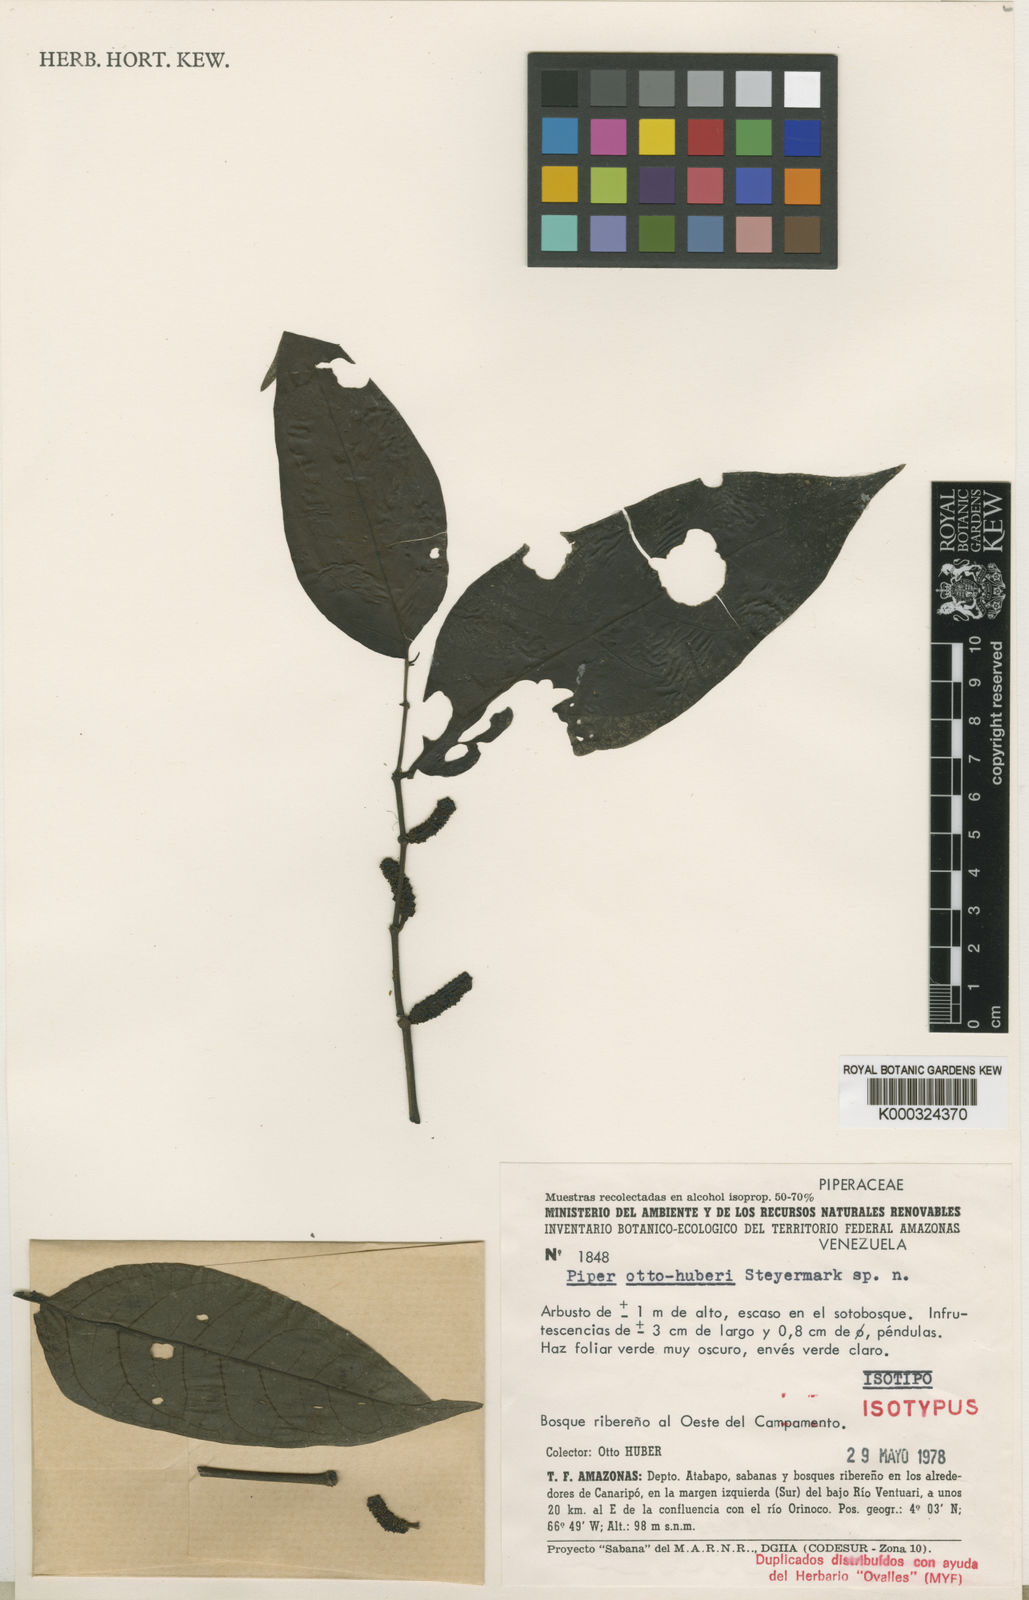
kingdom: Plantae
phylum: Tracheophyta
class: Magnoliopsida
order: Piperales
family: Piperaceae
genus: Piper
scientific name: Piper otto-huberi
